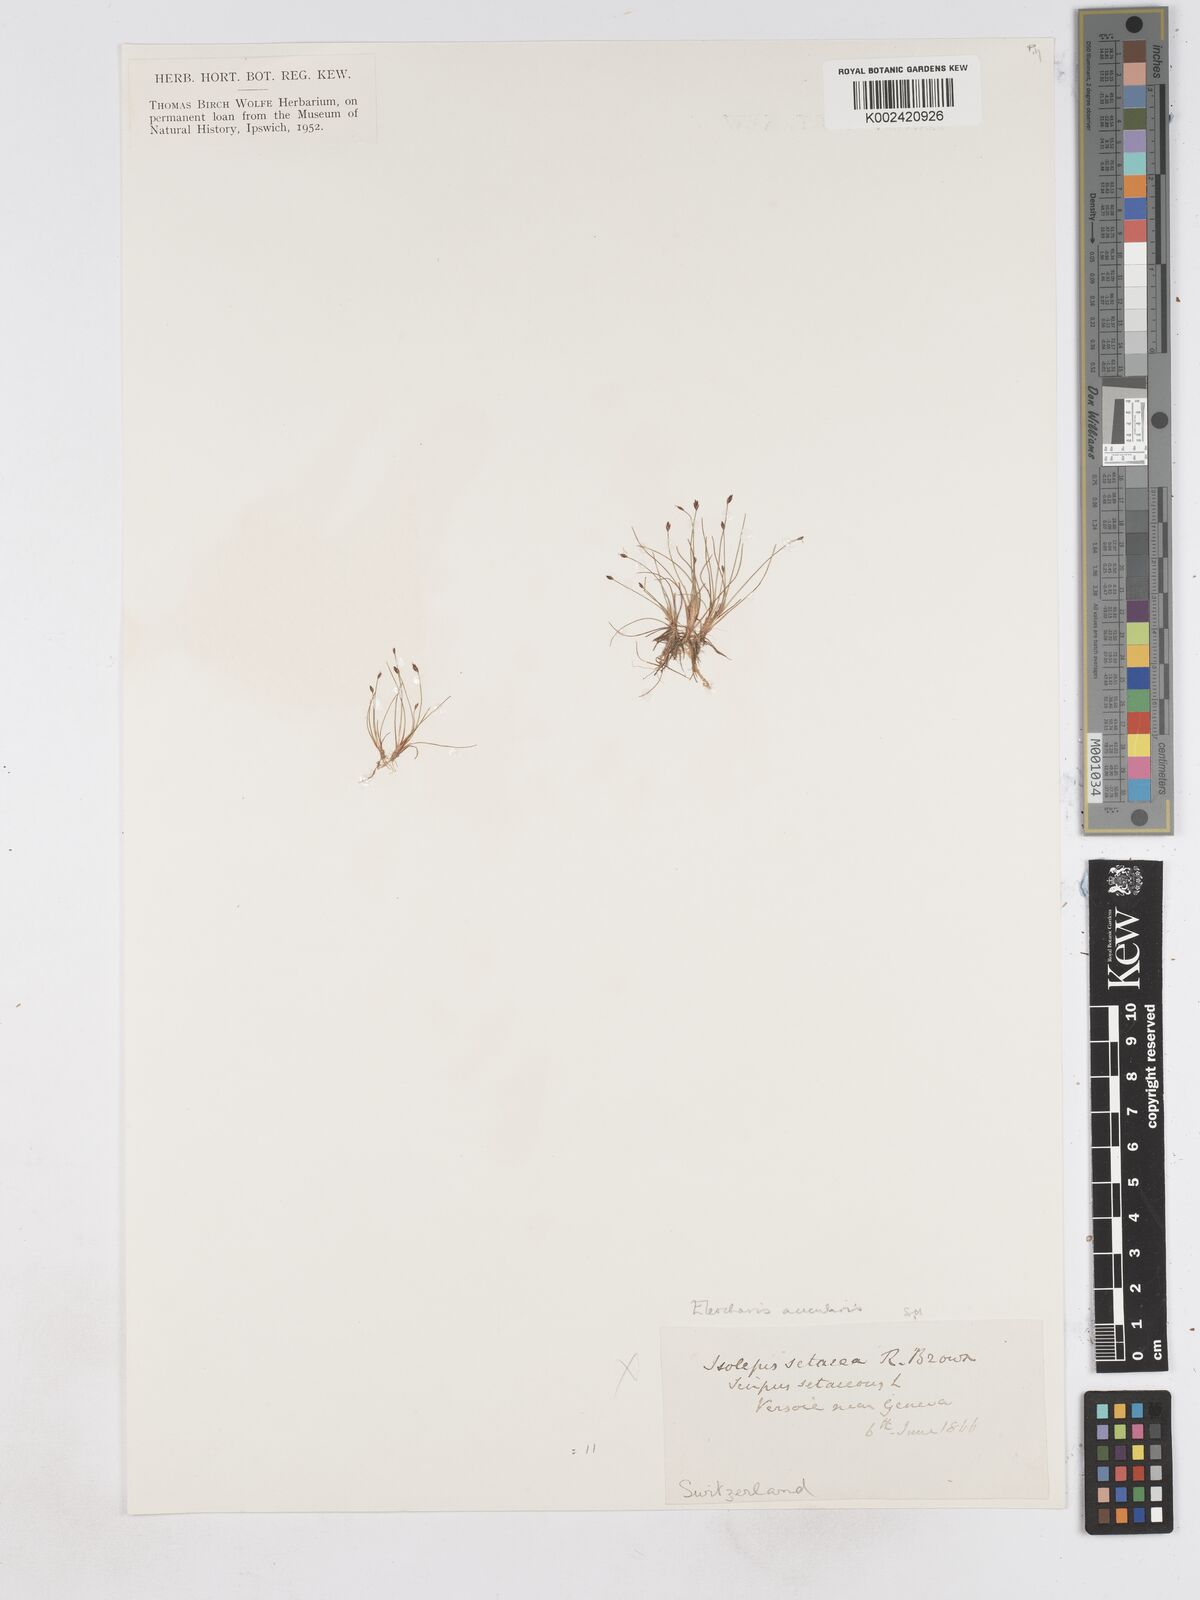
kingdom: Plantae
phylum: Tracheophyta
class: Liliopsida
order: Poales
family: Cyperaceae
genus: Eleocharis
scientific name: Eleocharis acicularis
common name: Needle spike-rush
